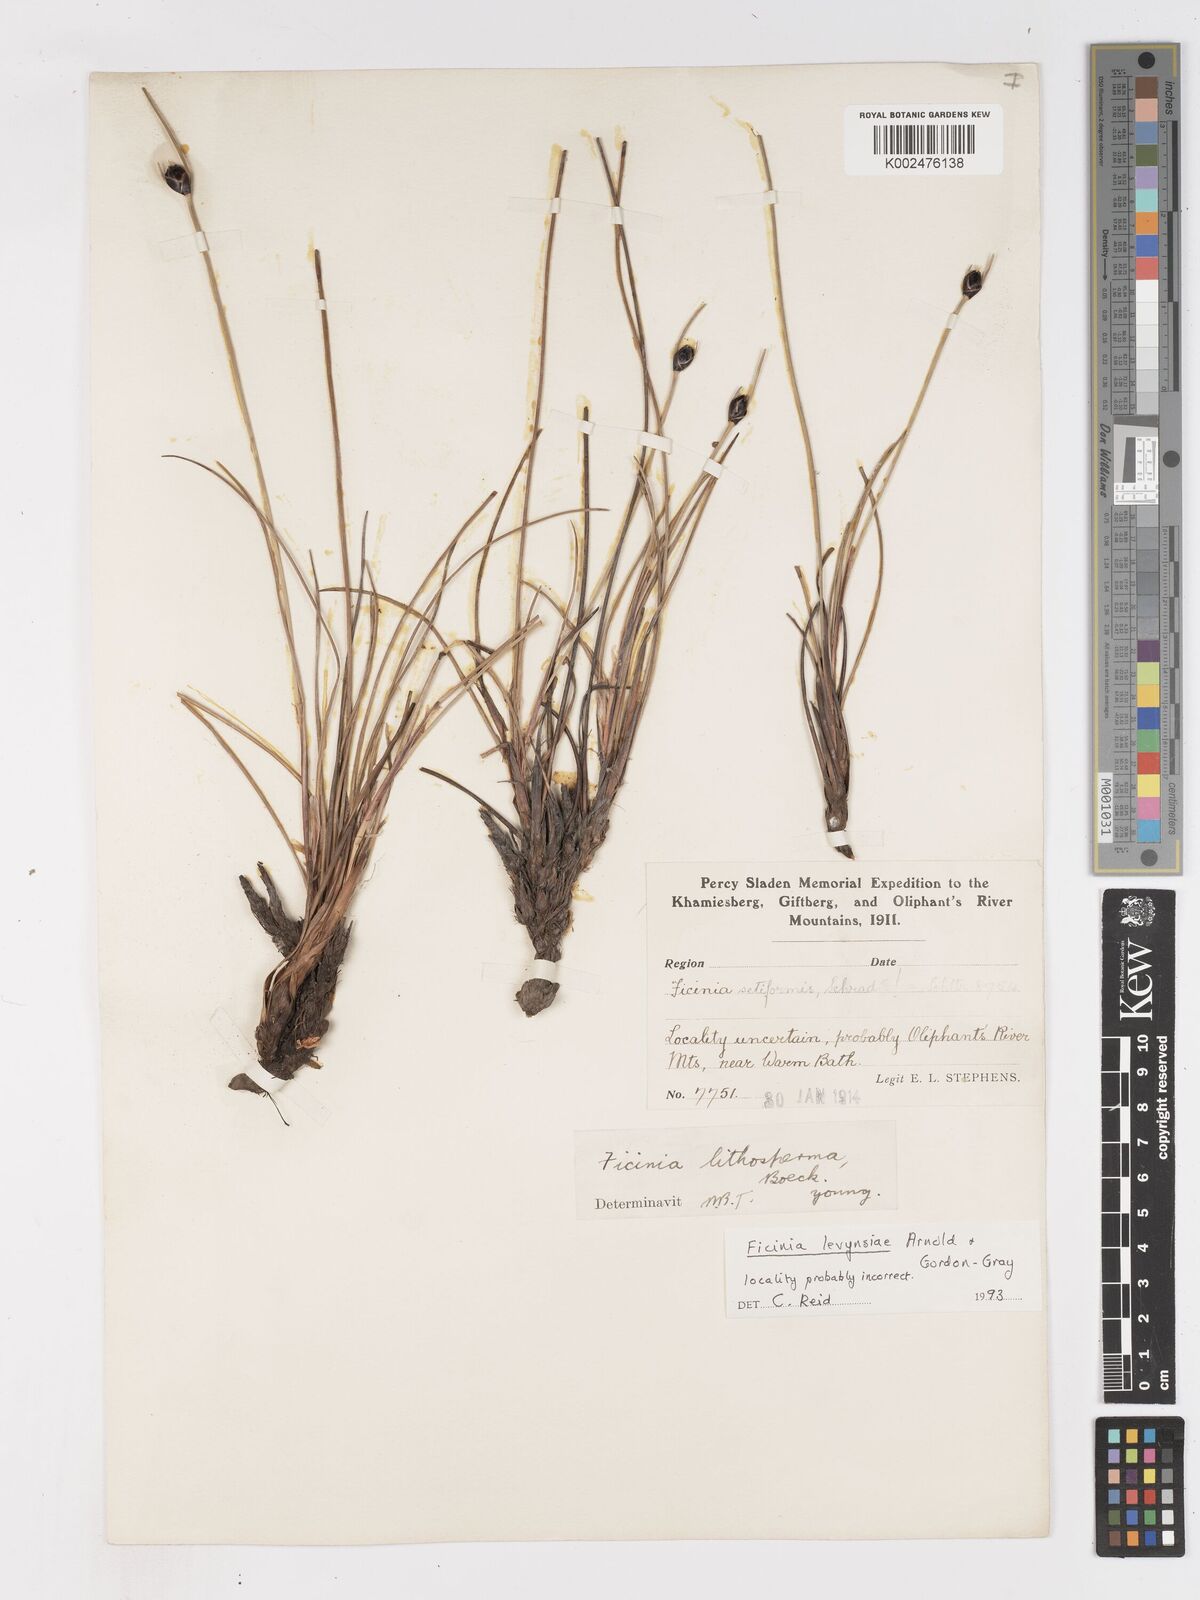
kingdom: Plantae
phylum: Tracheophyta
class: Liliopsida
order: Poales
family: Cyperaceae
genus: Ficinia
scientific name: Ficinia levynsiae
